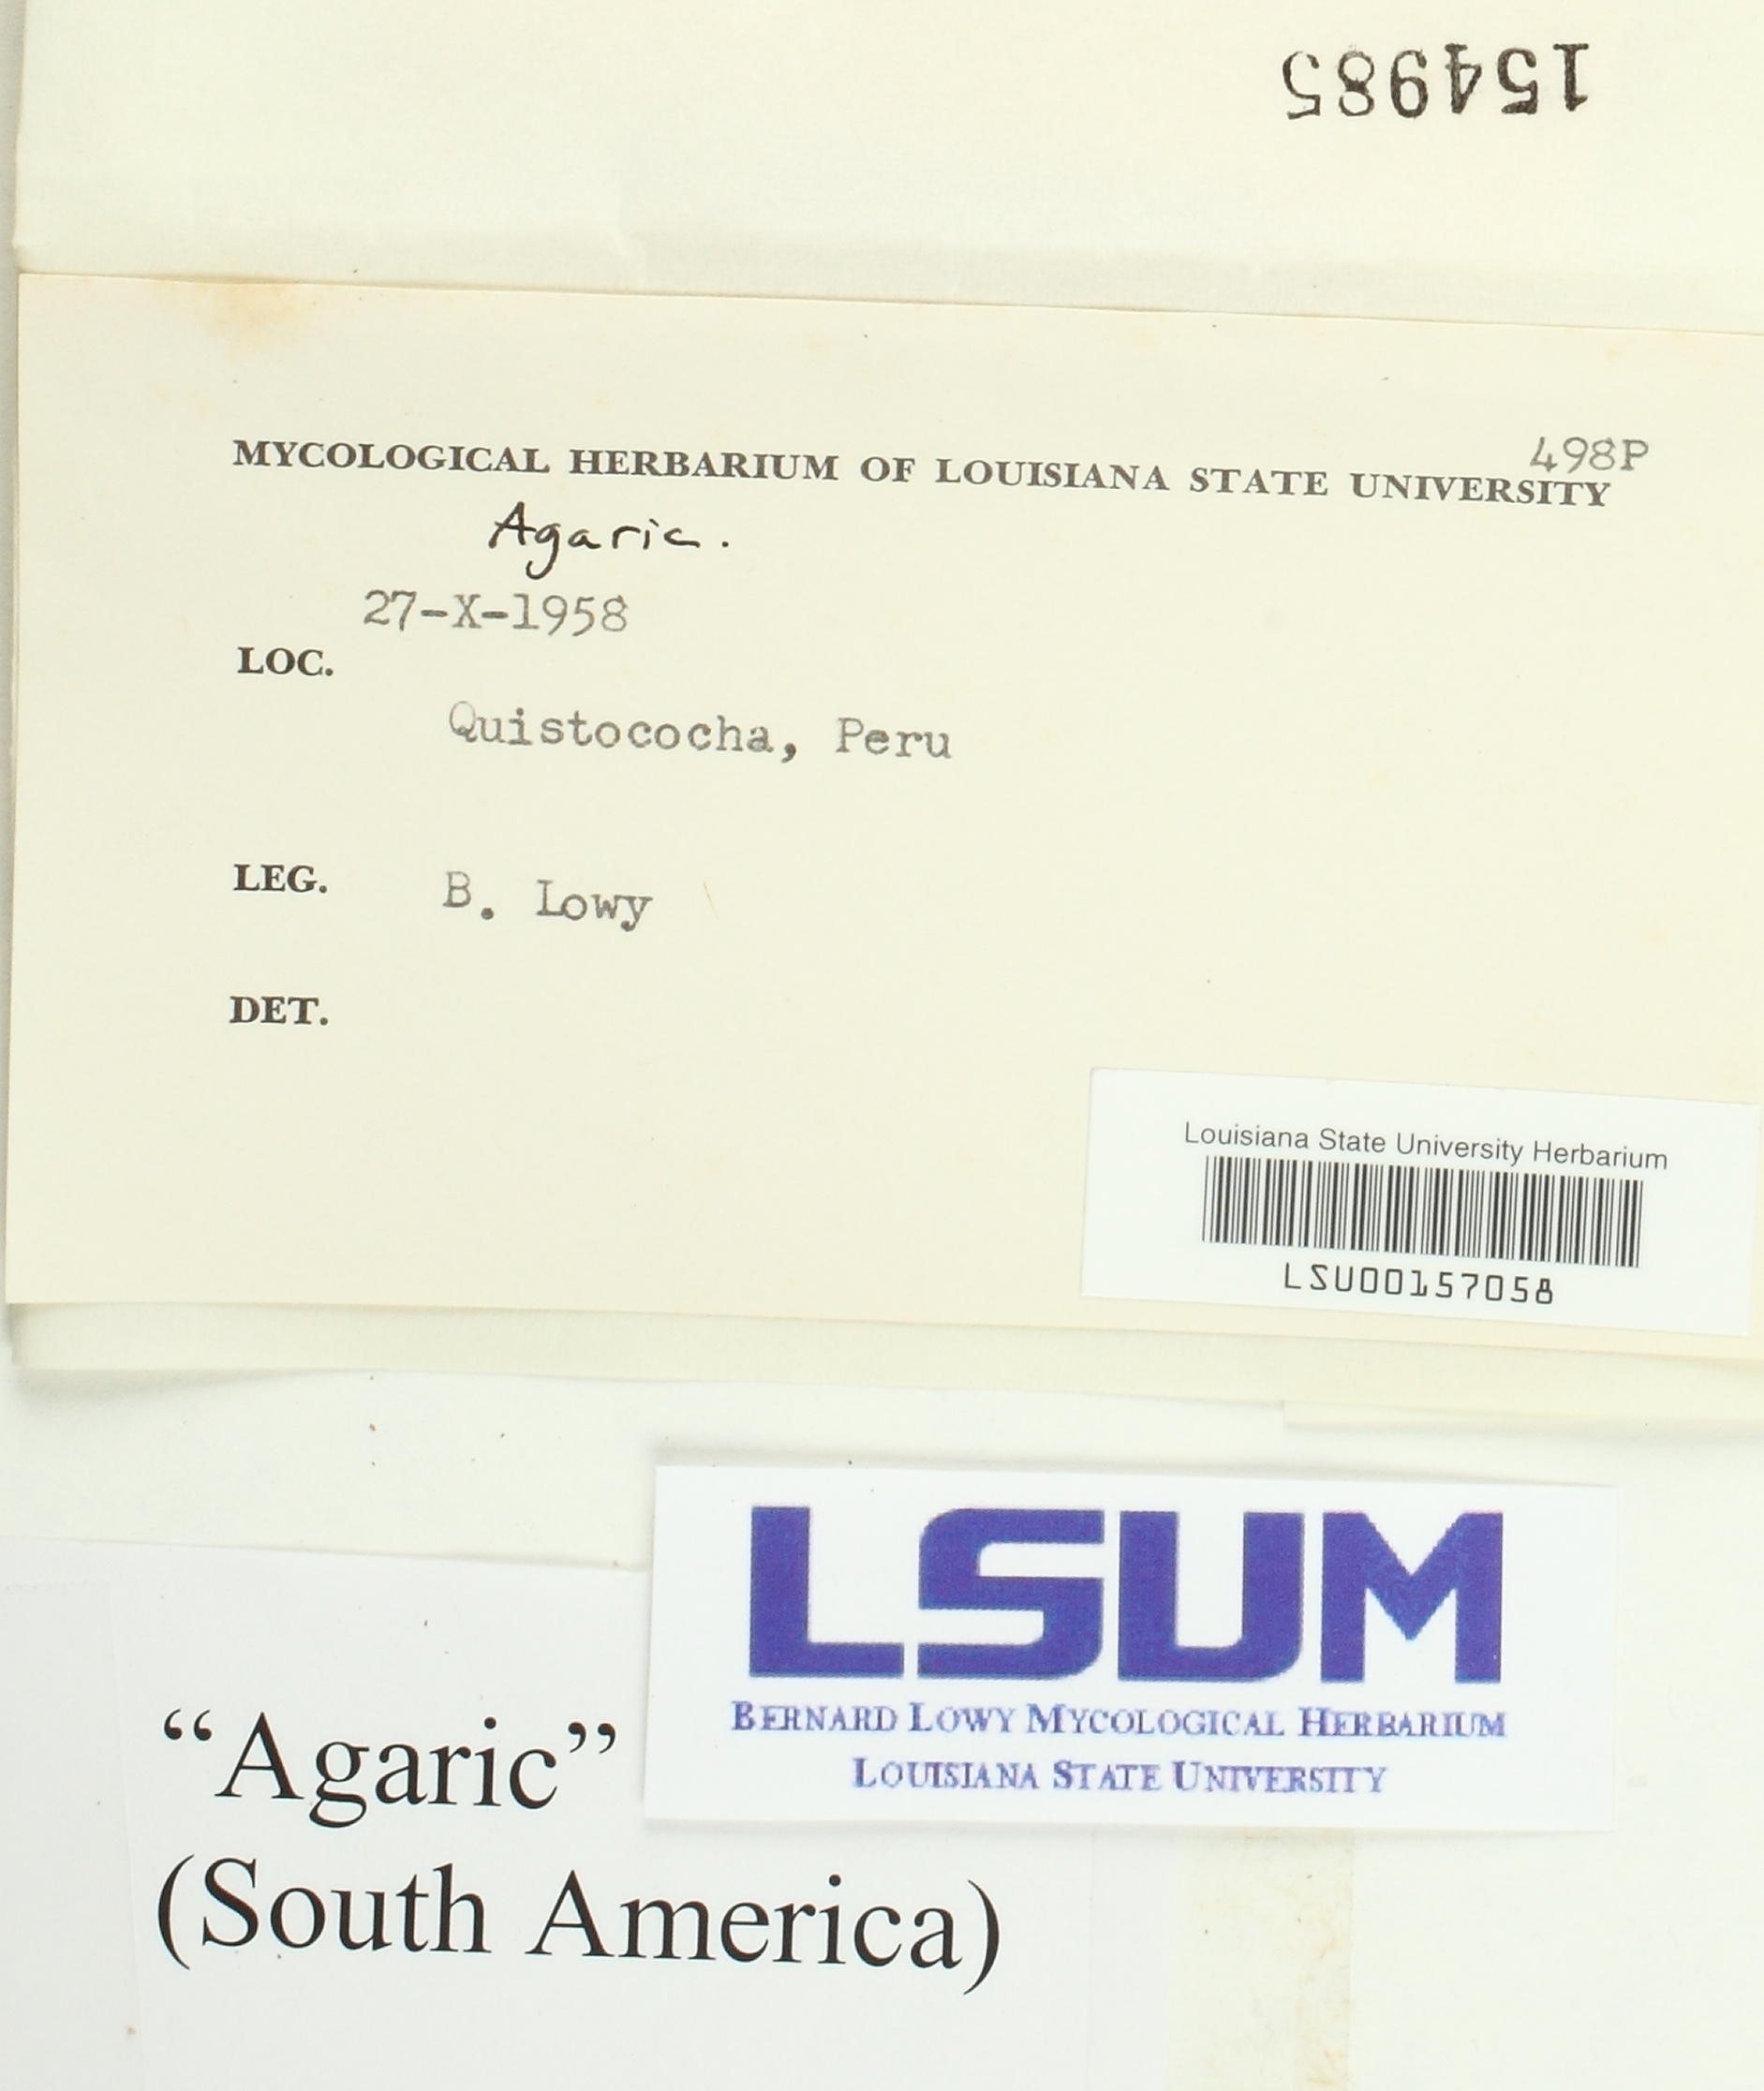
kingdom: Fungi
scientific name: Fungi
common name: Fungi
